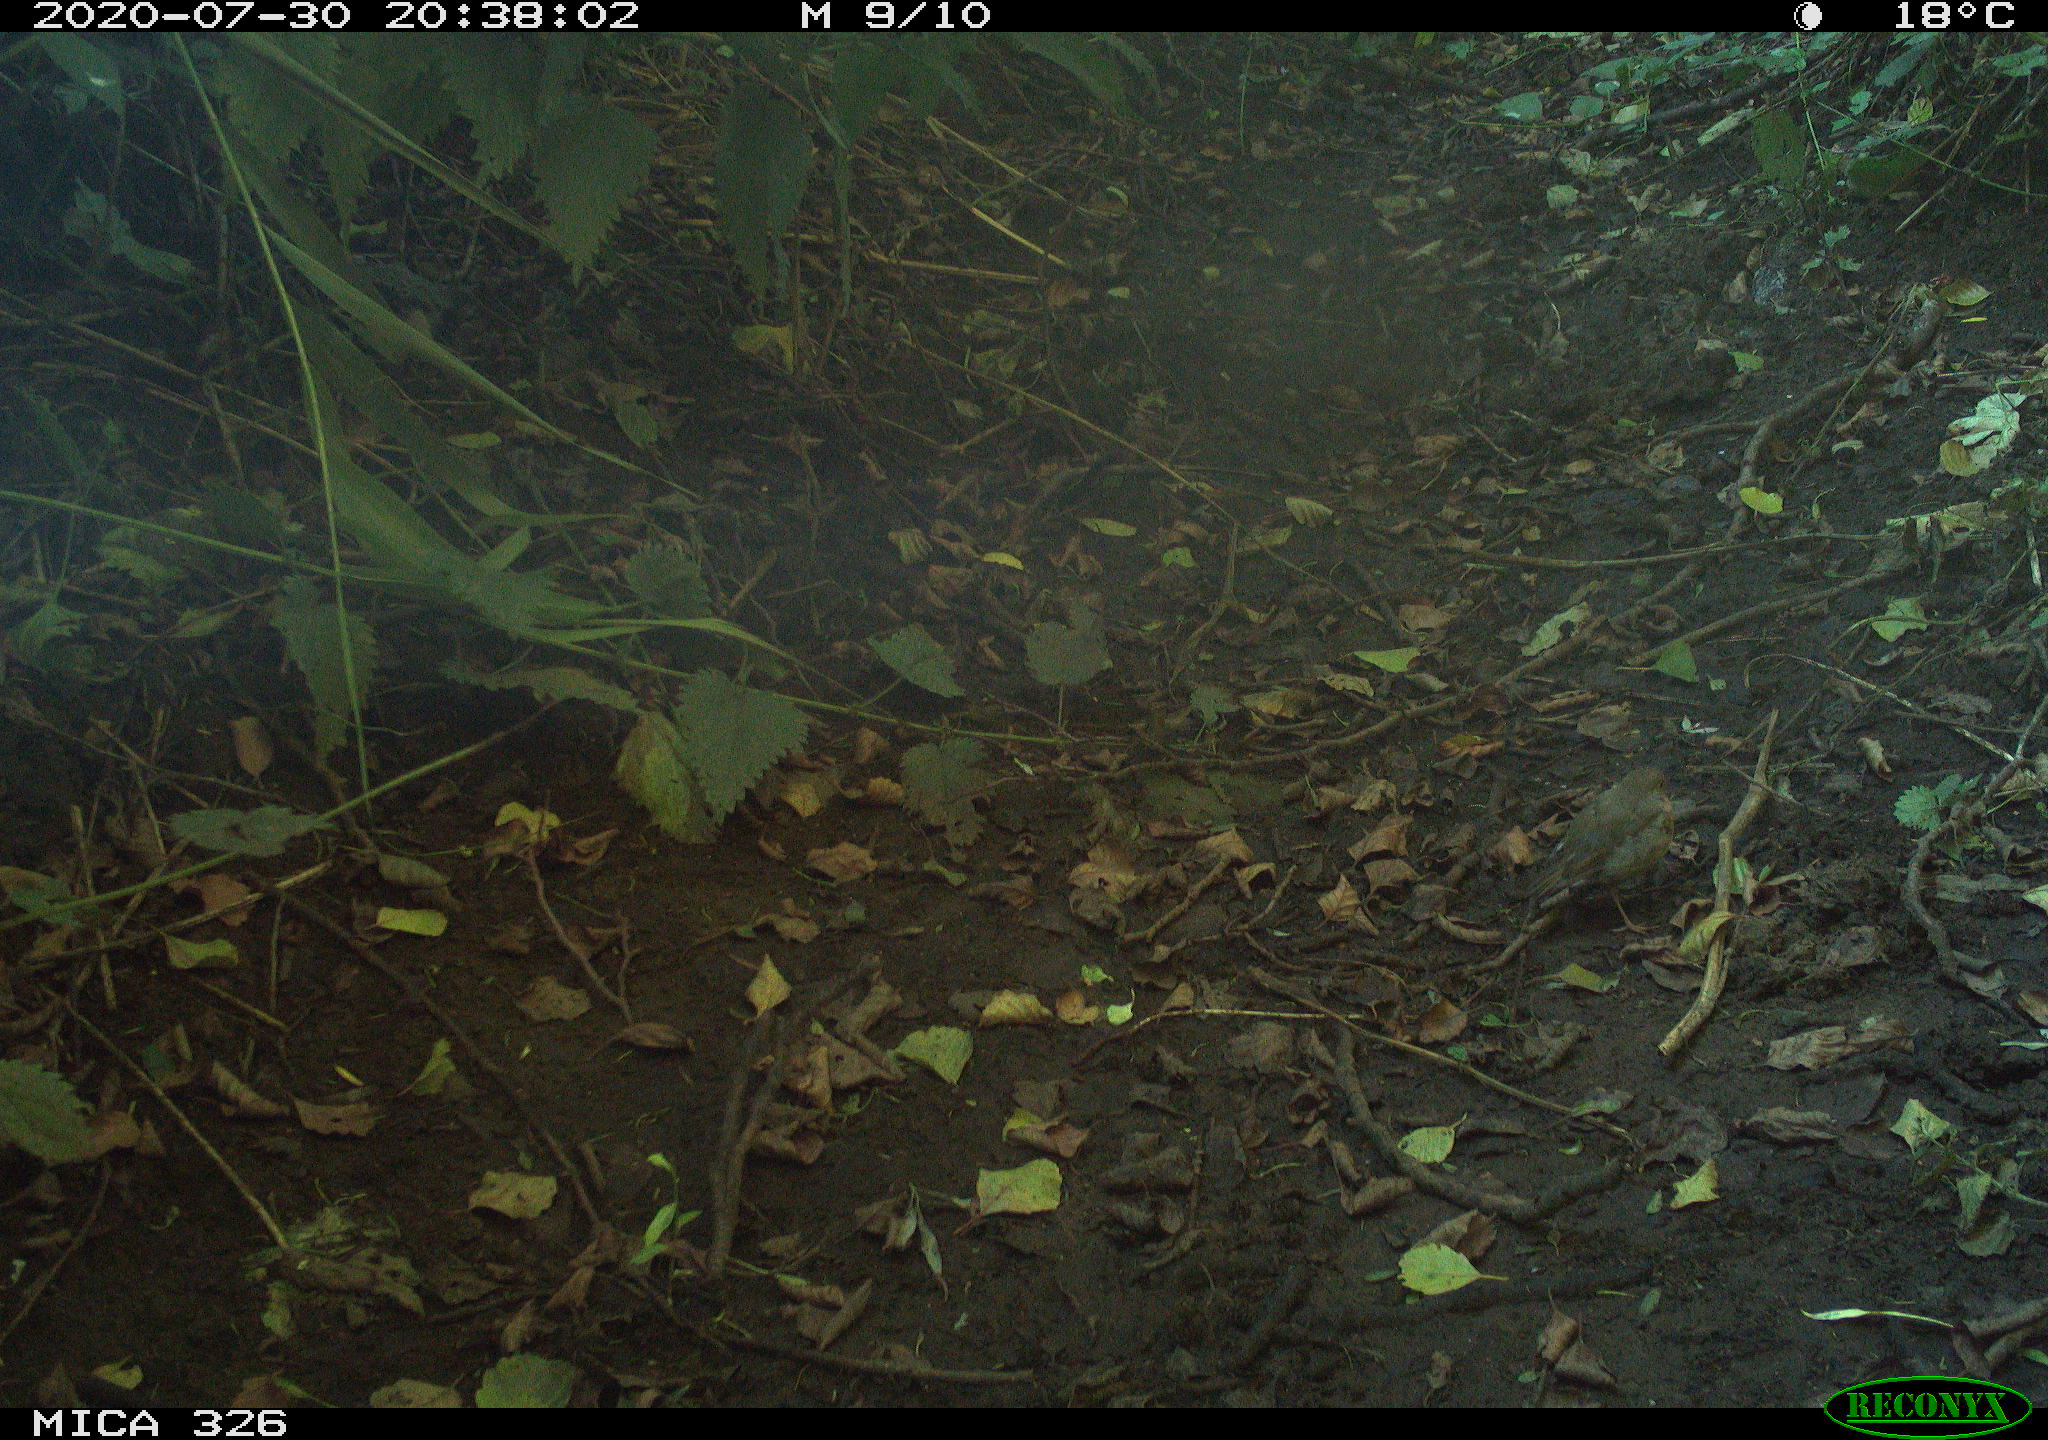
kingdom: Animalia
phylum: Chordata
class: Aves
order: Passeriformes
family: Muscicapidae
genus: Erithacus
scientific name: Erithacus rubecula
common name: European robin
